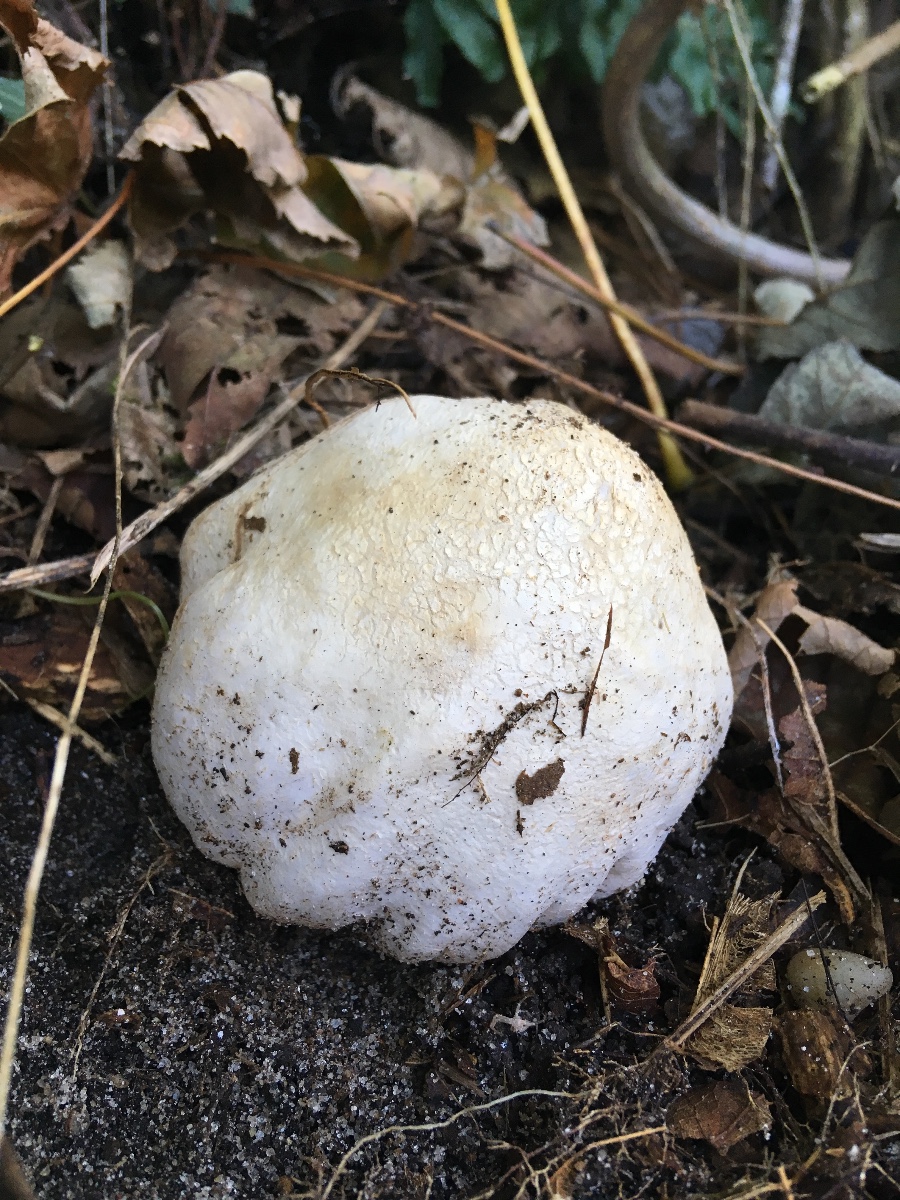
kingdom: Fungi
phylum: Basidiomycota
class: Agaricomycetes
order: Phallales
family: Phallaceae
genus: Phallus
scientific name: Phallus impudicus
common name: almindelig stinksvamp
